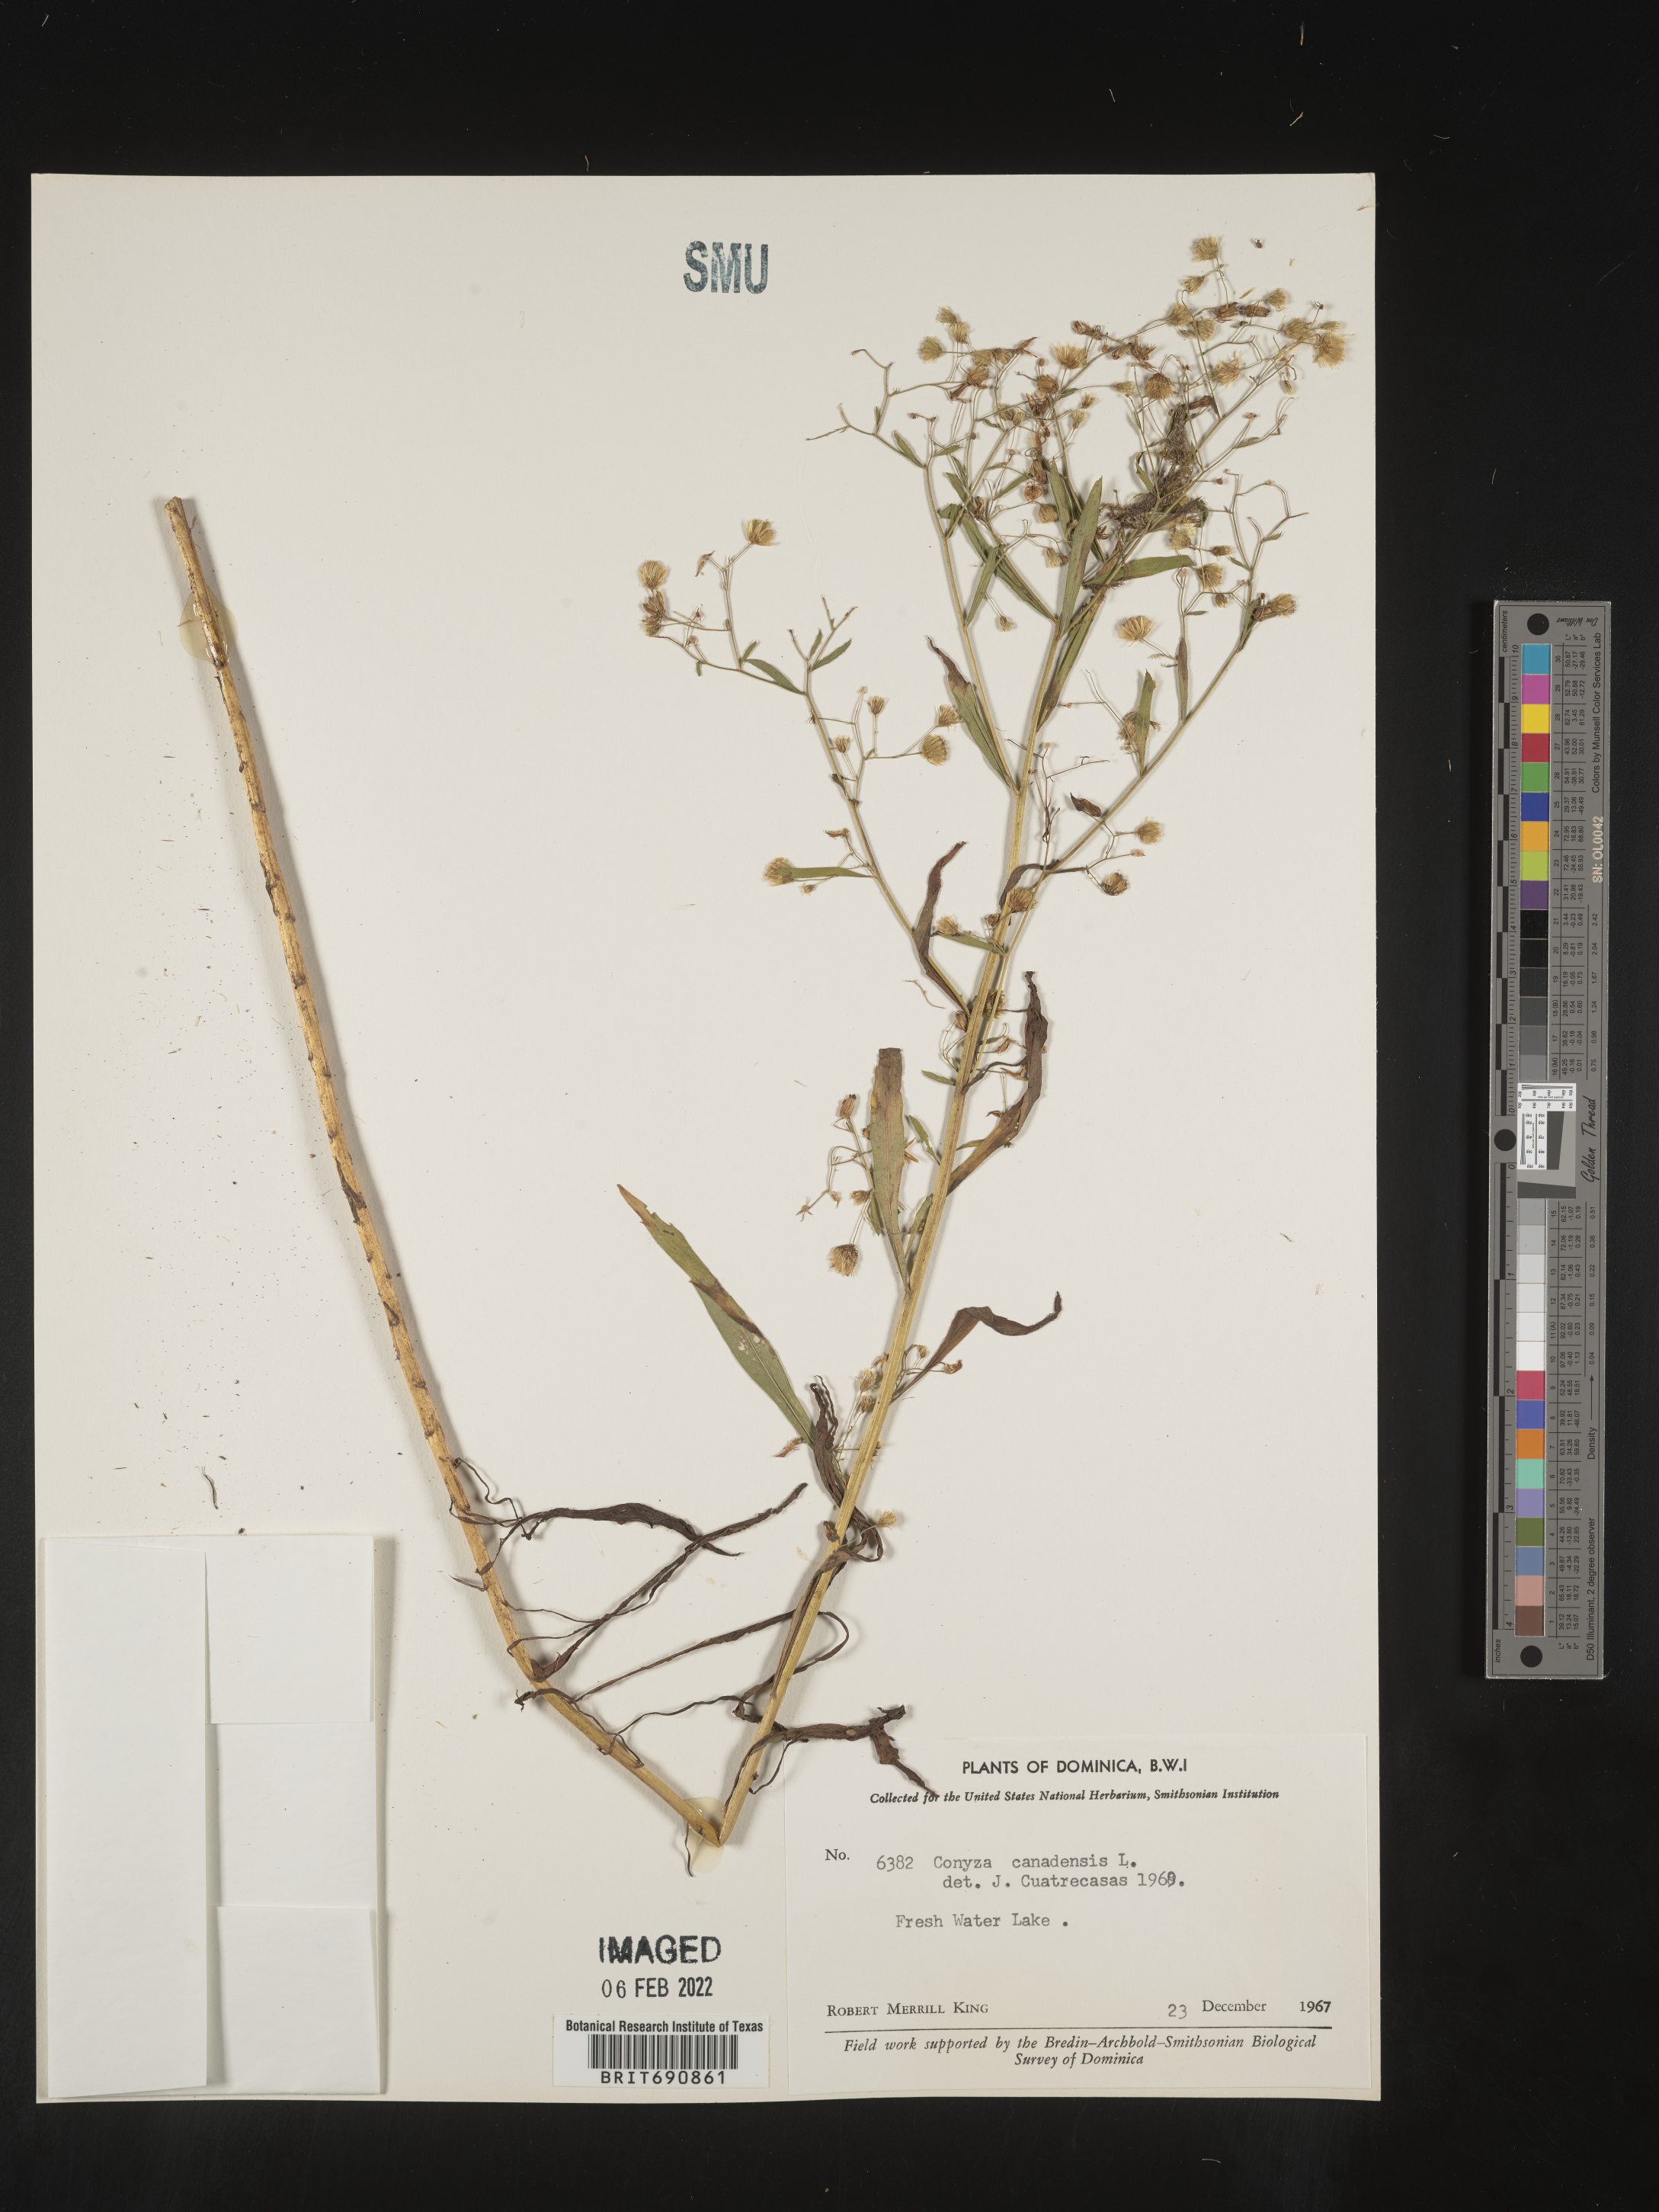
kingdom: Plantae
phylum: Tracheophyta
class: Magnoliopsida
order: Asterales
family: Asteraceae
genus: Conyza
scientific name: Conyza
